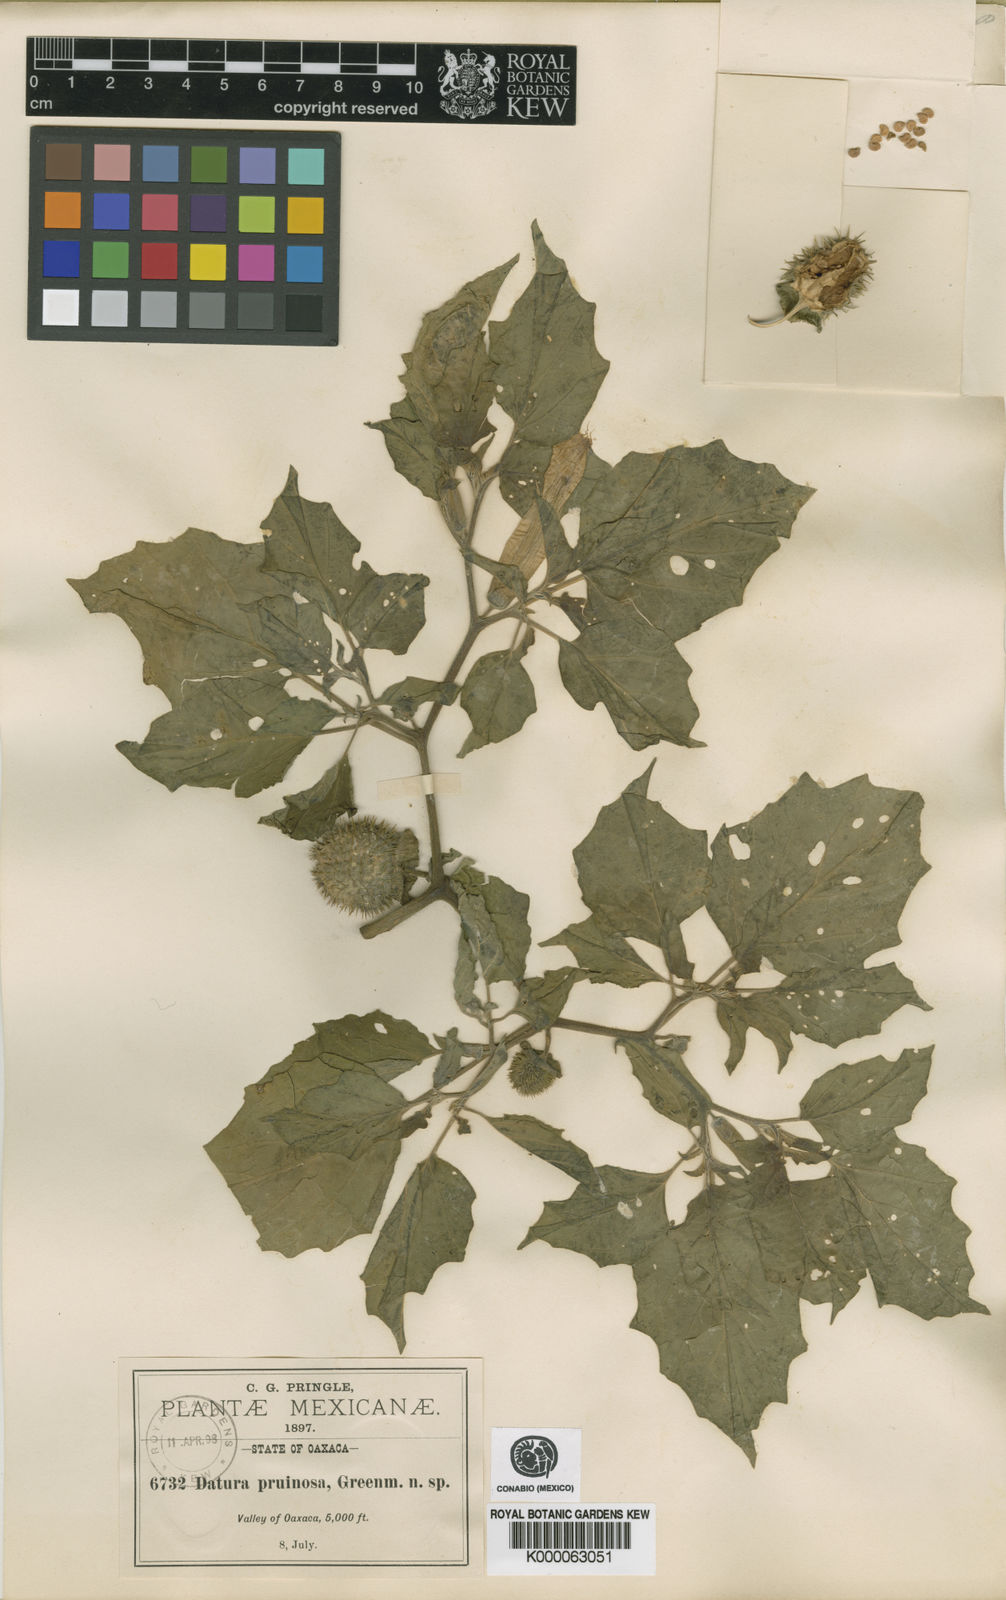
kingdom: Plantae
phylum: Tracheophyta
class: Magnoliopsida
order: Solanales
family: Solanaceae
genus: Datura
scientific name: Datura pruinosa
